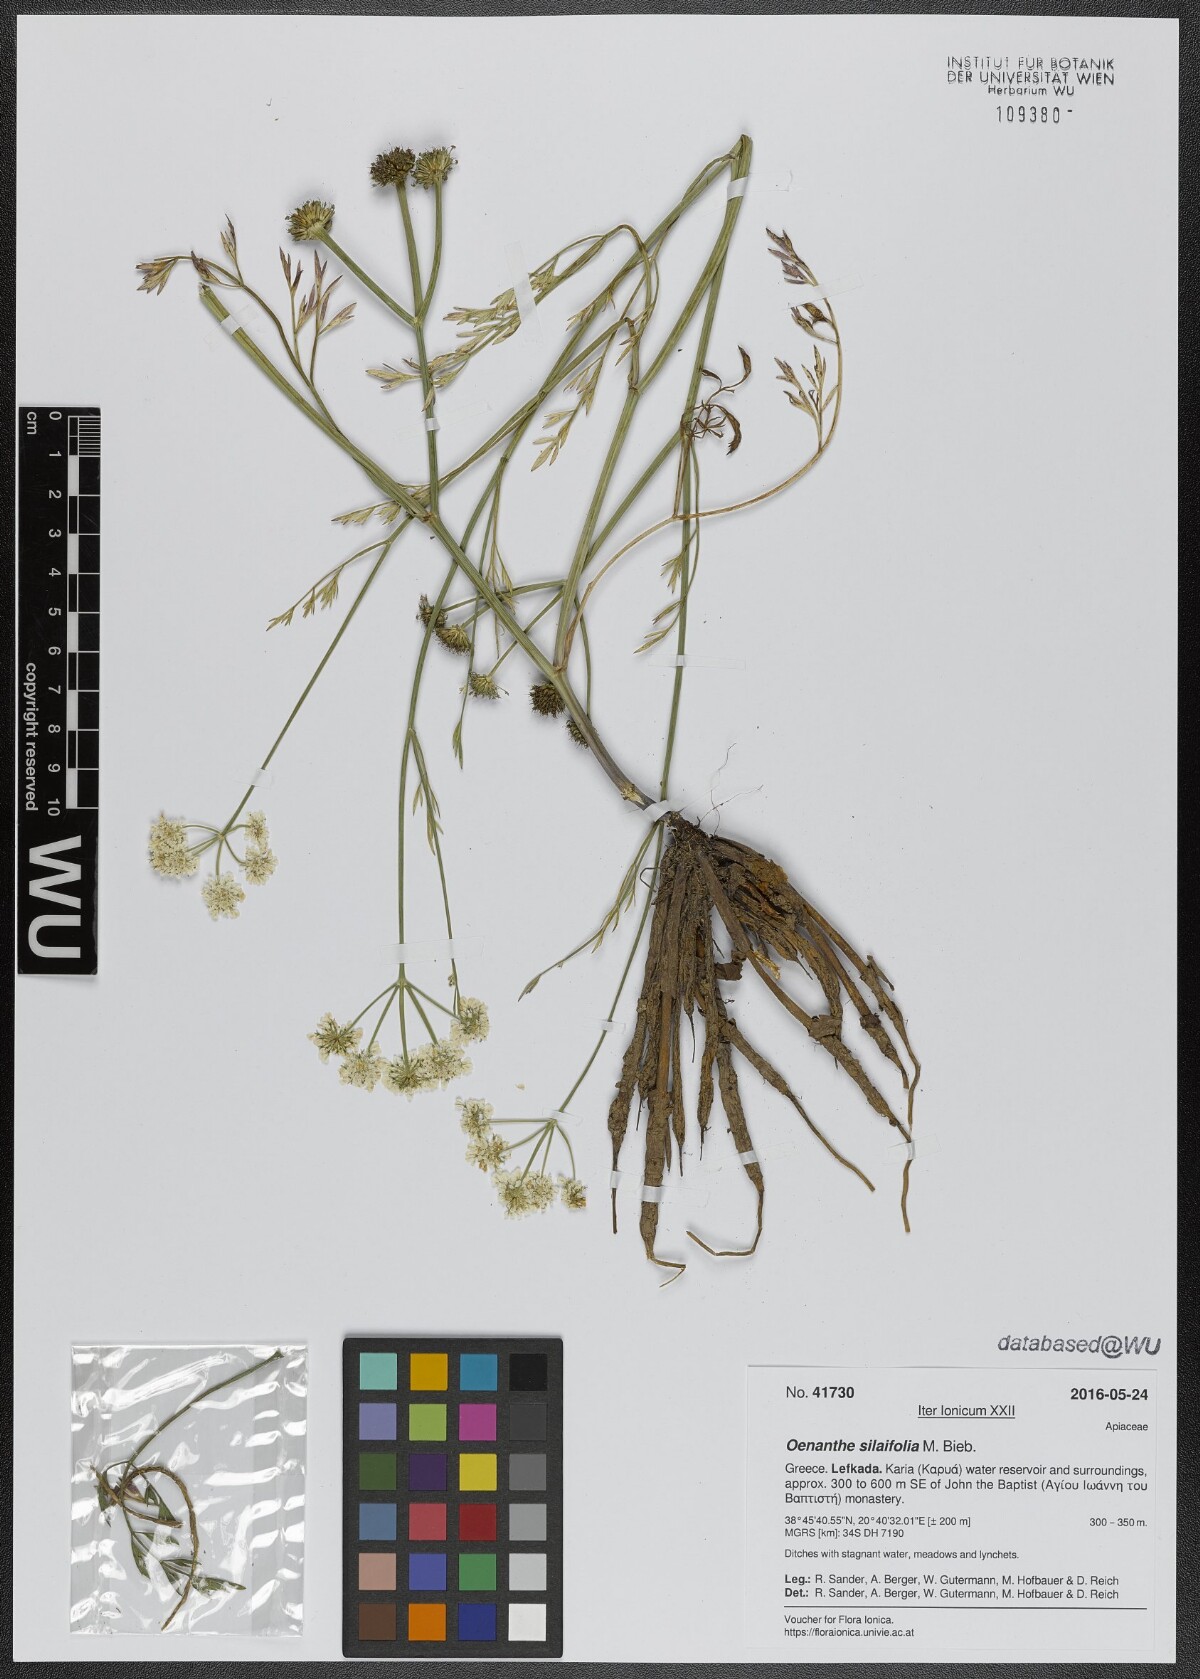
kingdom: Plantae
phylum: Tracheophyta
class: Magnoliopsida
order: Apiales
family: Apiaceae
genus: Oenanthe
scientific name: Oenanthe silaifolia
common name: Narrow-leaved water-dropwort
